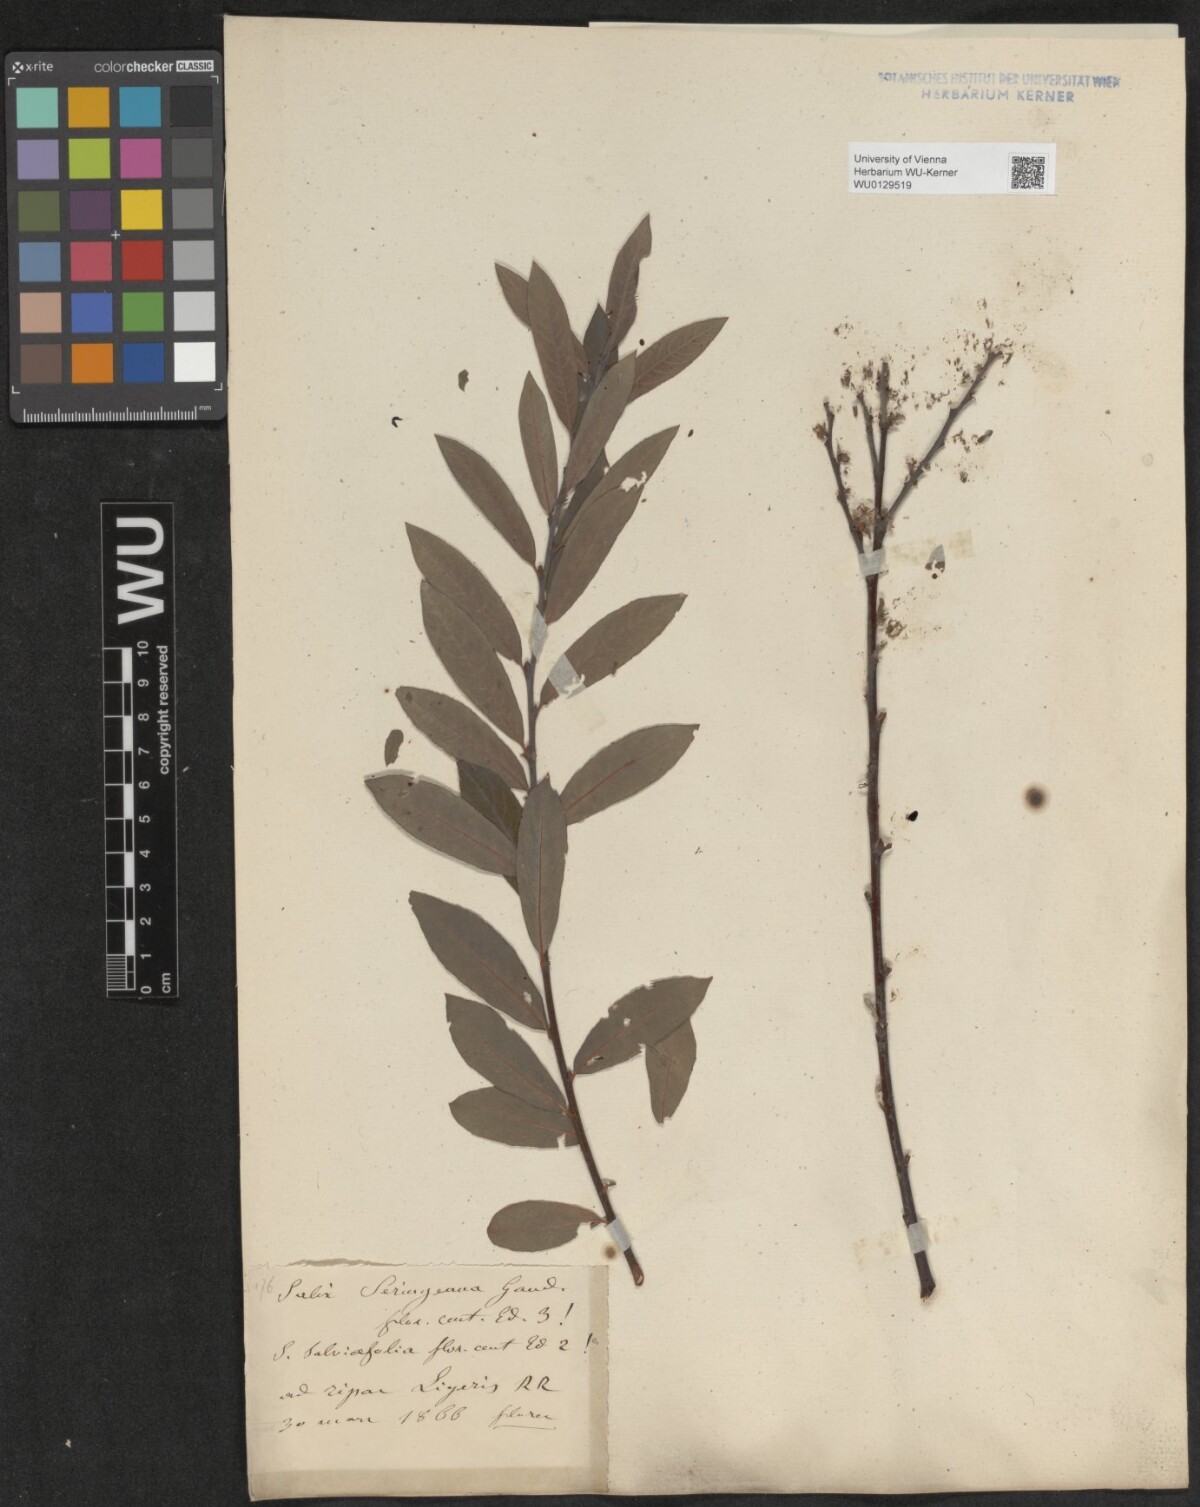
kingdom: Plantae
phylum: Tracheophyta
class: Magnoliopsida
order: Malpighiales
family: Salicaceae
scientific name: Salicaceae
